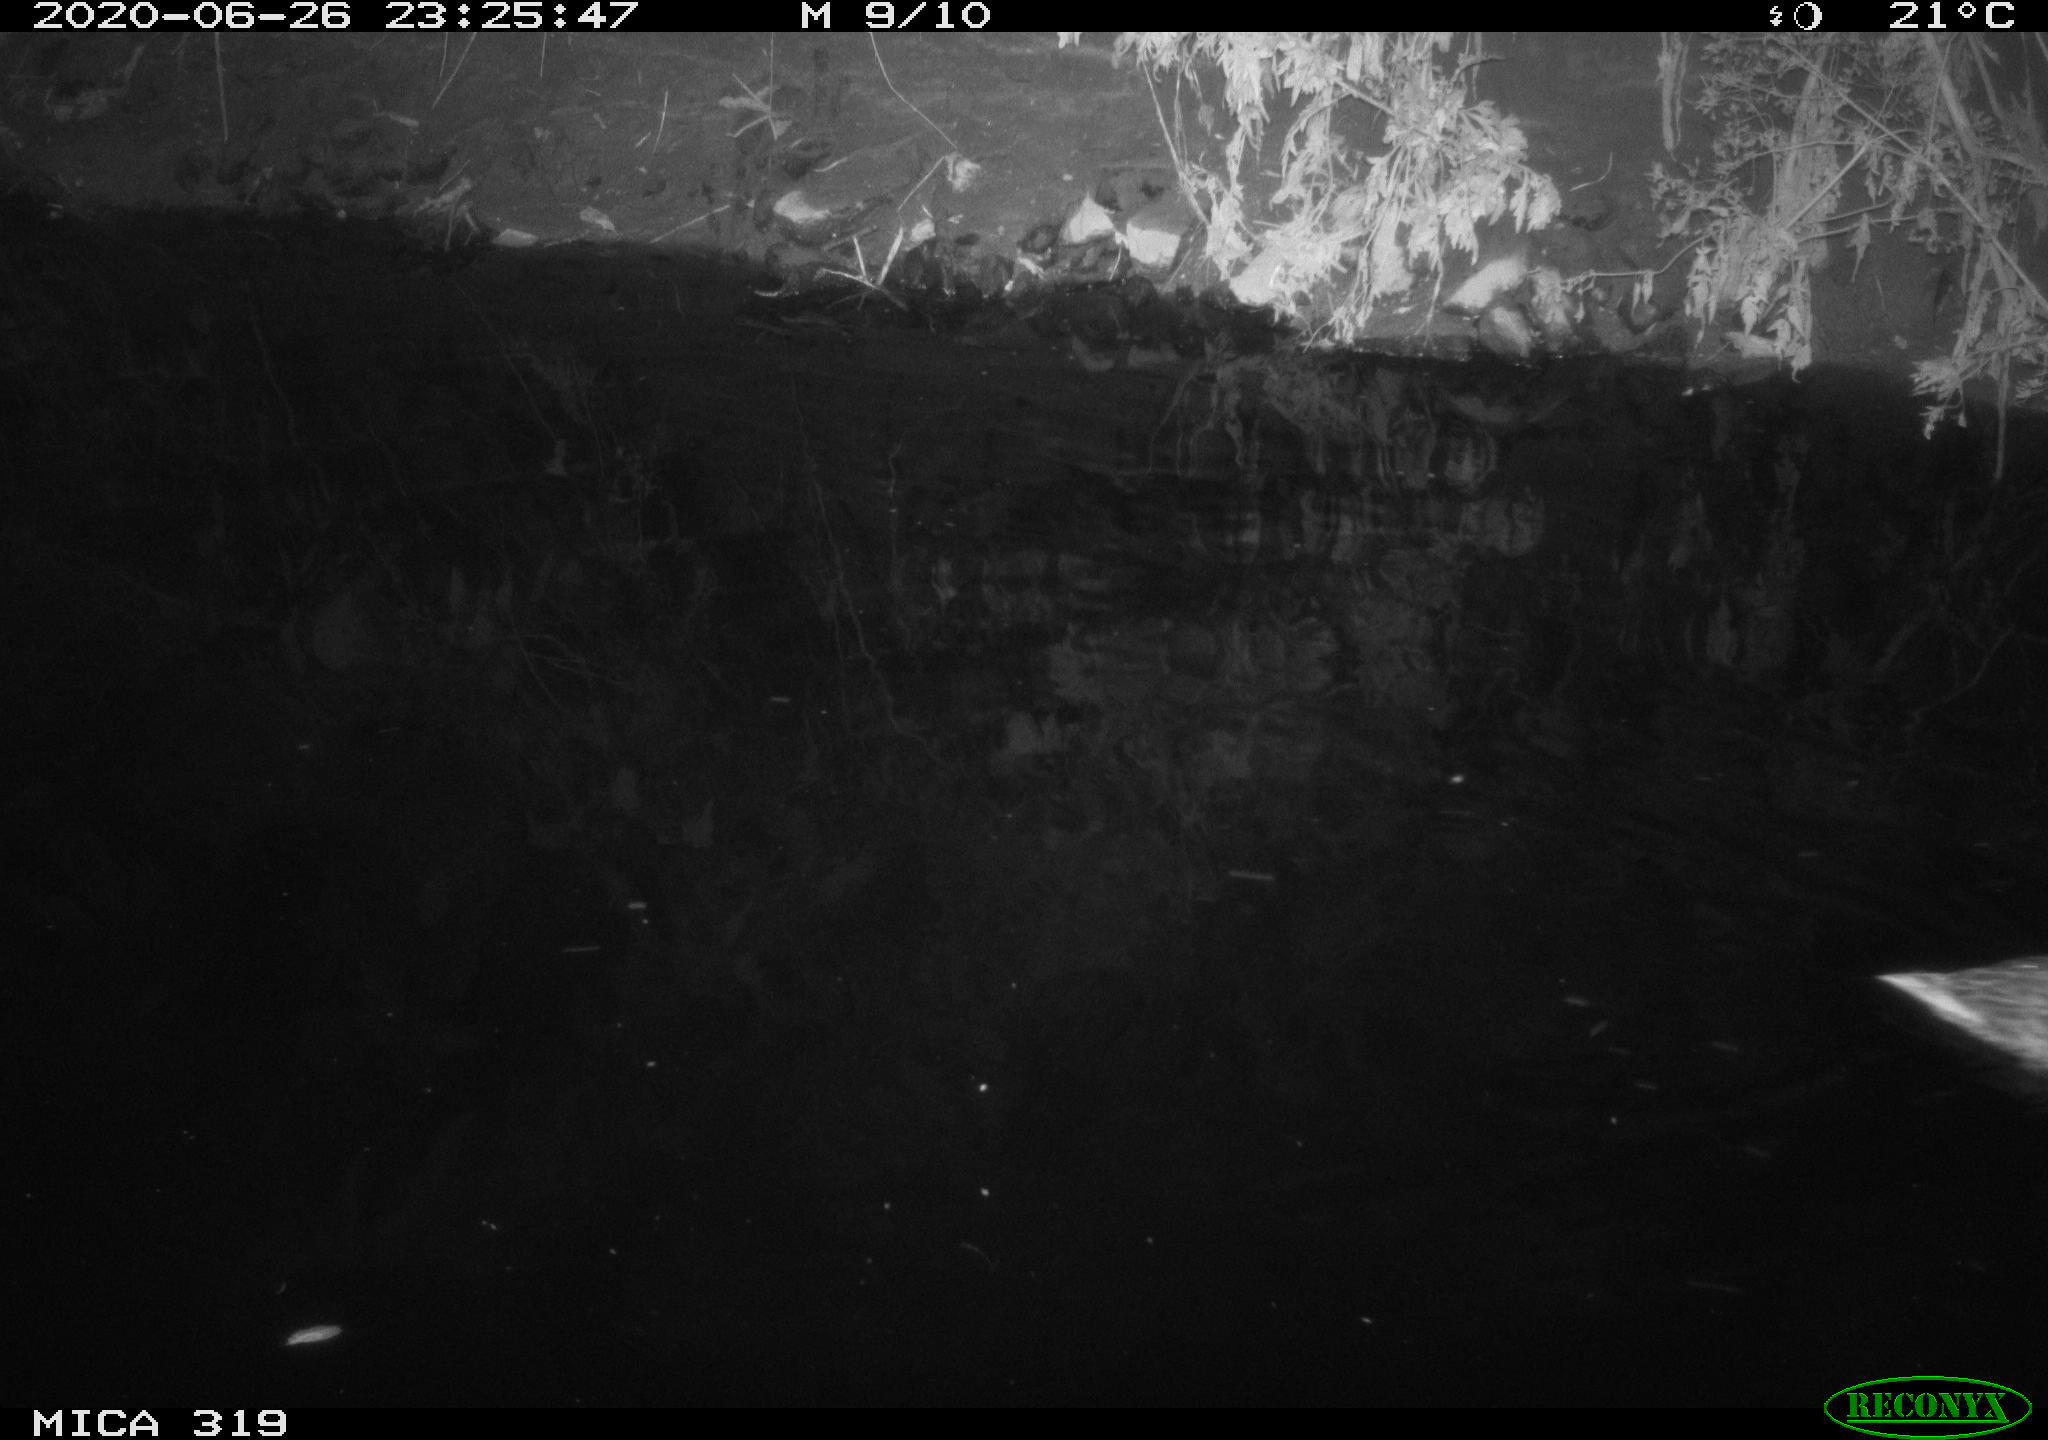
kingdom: Animalia
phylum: Chordata
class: Aves
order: Anseriformes
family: Anatidae
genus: Anas
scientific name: Anas platyrhynchos
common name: Mallard
